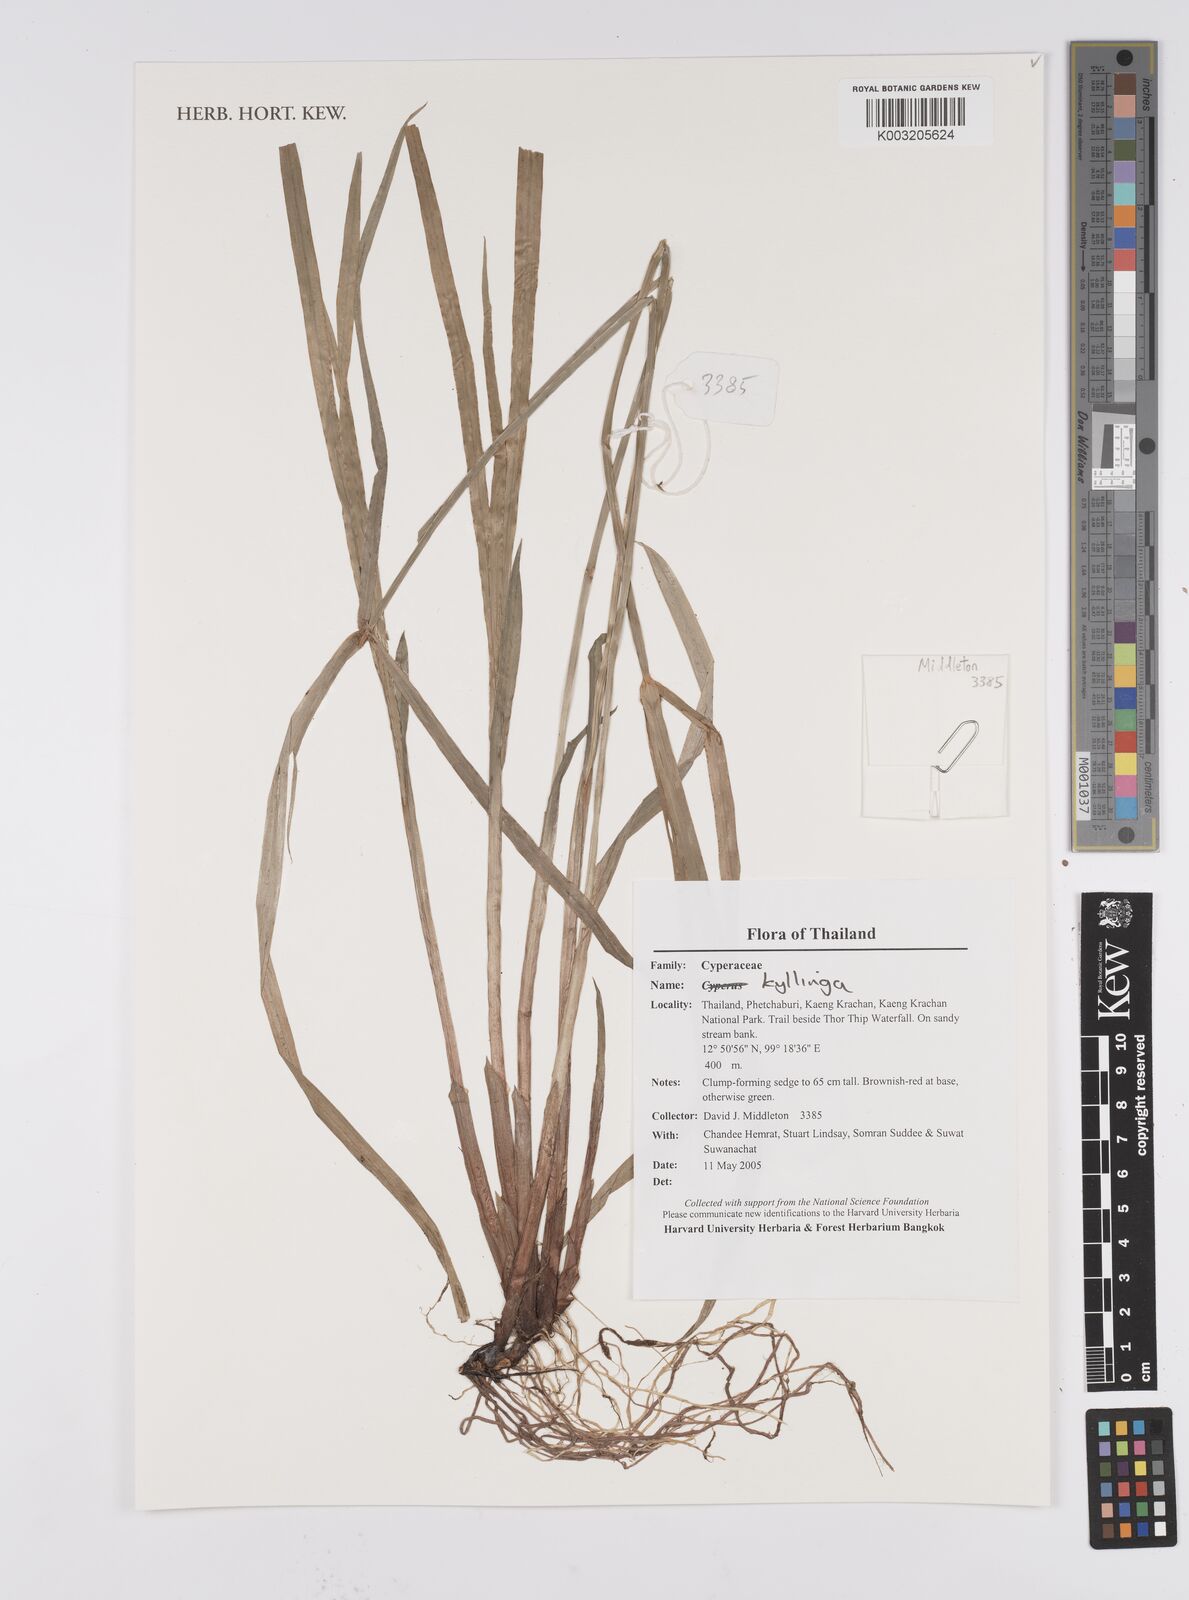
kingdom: Plantae
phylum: Tracheophyta
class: Liliopsida
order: Poales
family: Cyperaceae
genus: Cyperus
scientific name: Cyperus
